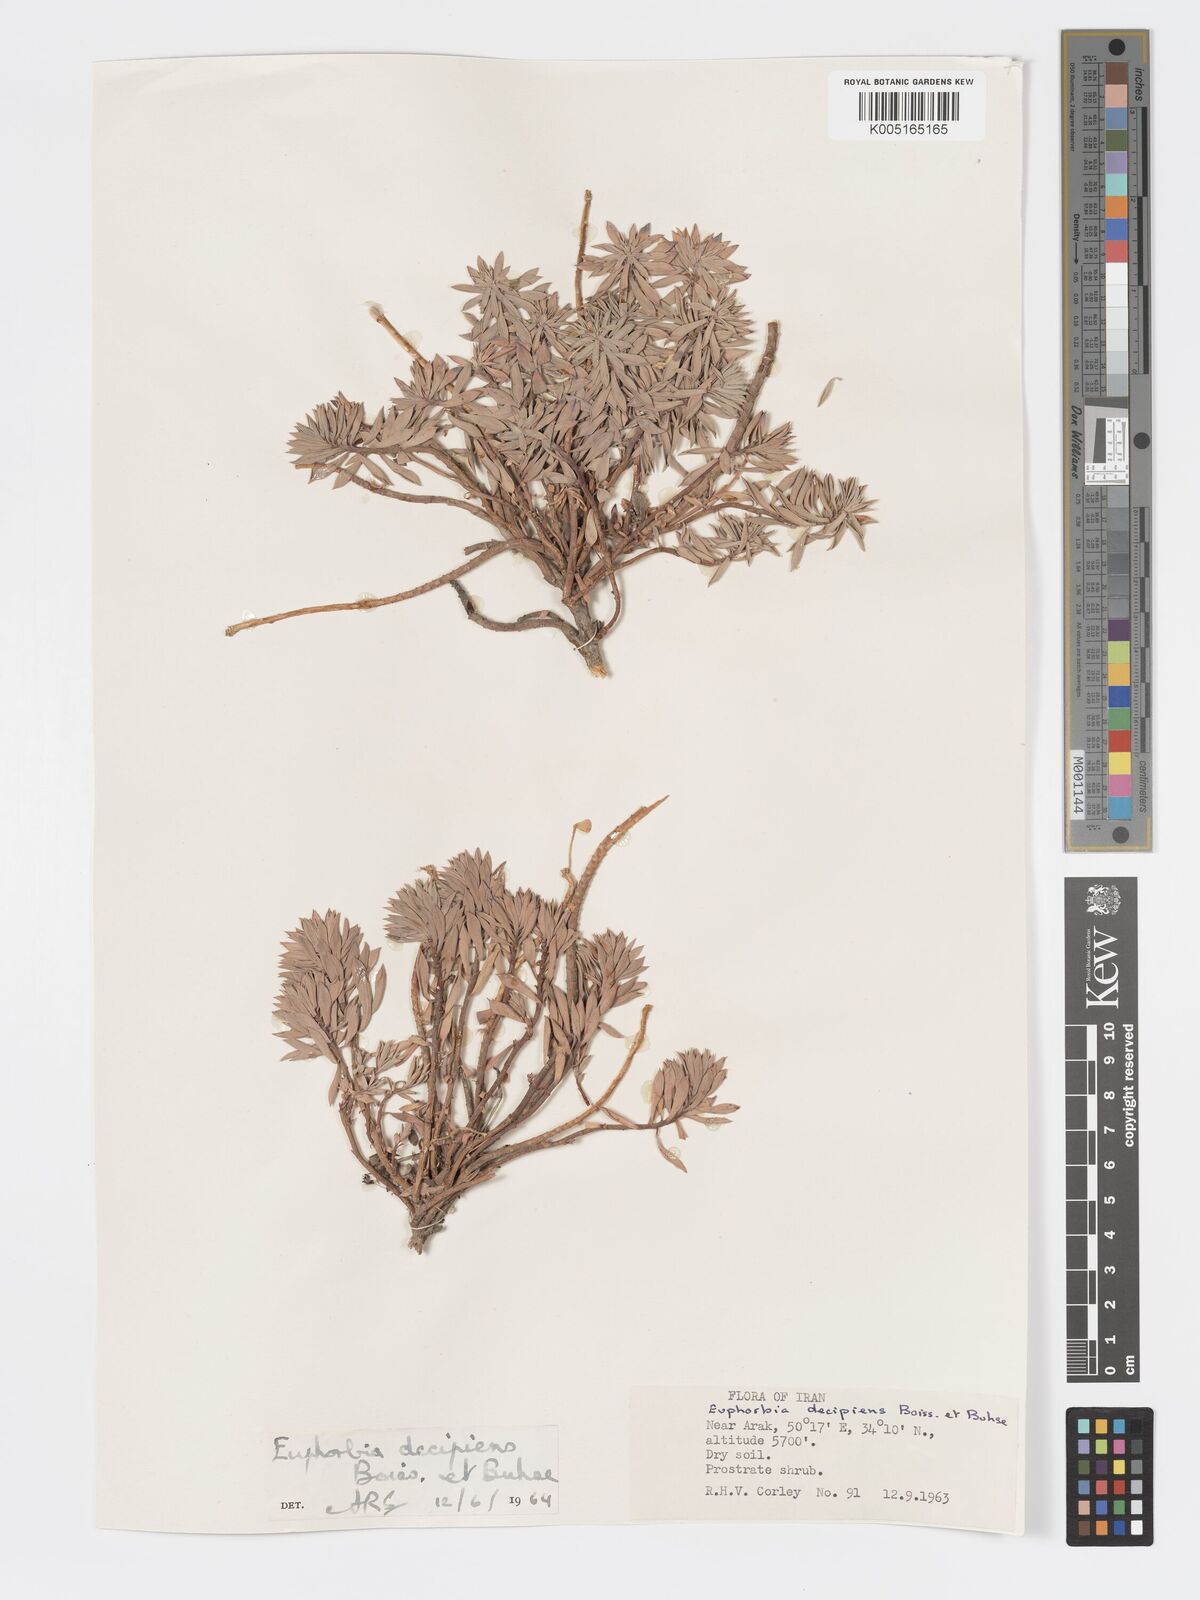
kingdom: Plantae
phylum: Tracheophyta
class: Magnoliopsida
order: Malpighiales
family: Euphorbiaceae
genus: Euphorbia
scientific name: Euphorbia polycaulis
